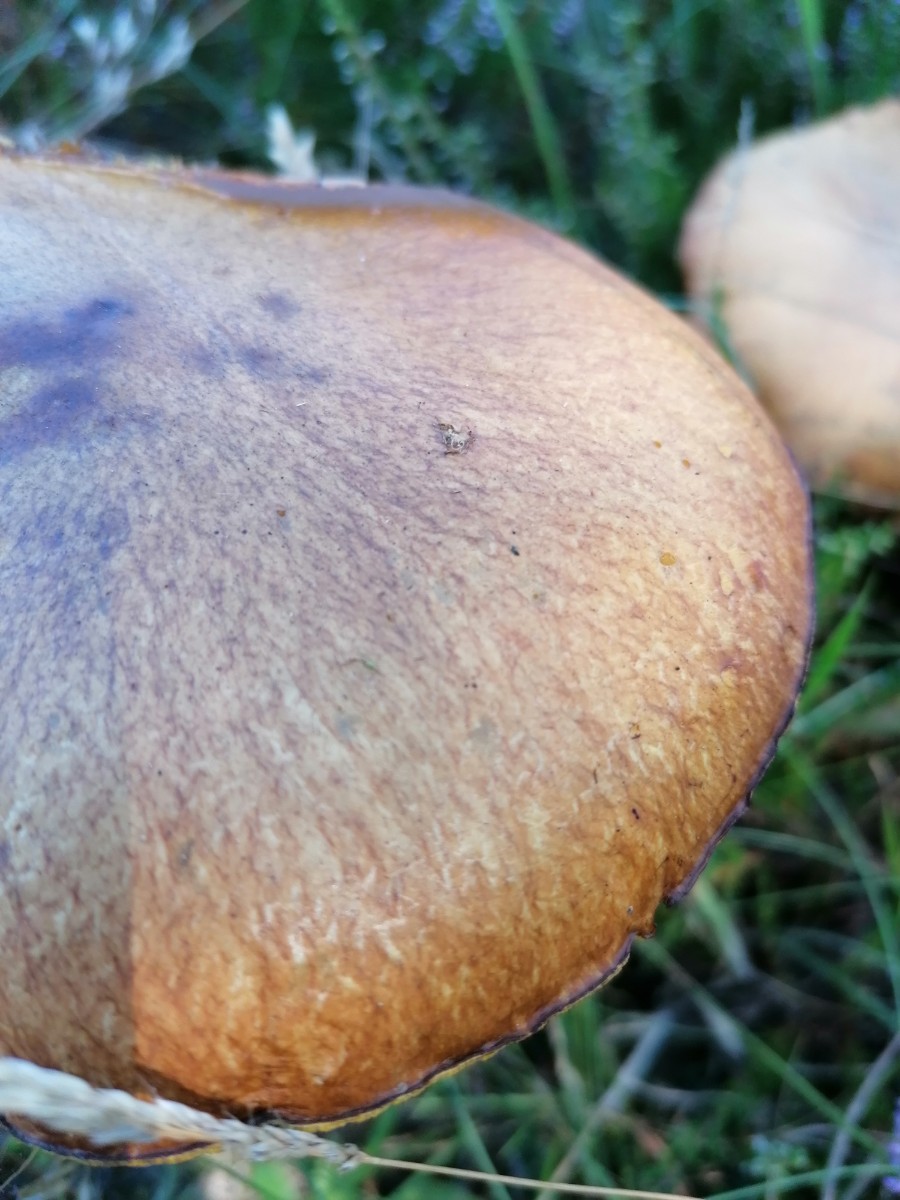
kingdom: Fungi
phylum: Basidiomycota
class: Agaricomycetes
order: Boletales
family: Suillaceae
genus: Suillus
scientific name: Suillus luteus
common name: brungul slimrørhat
